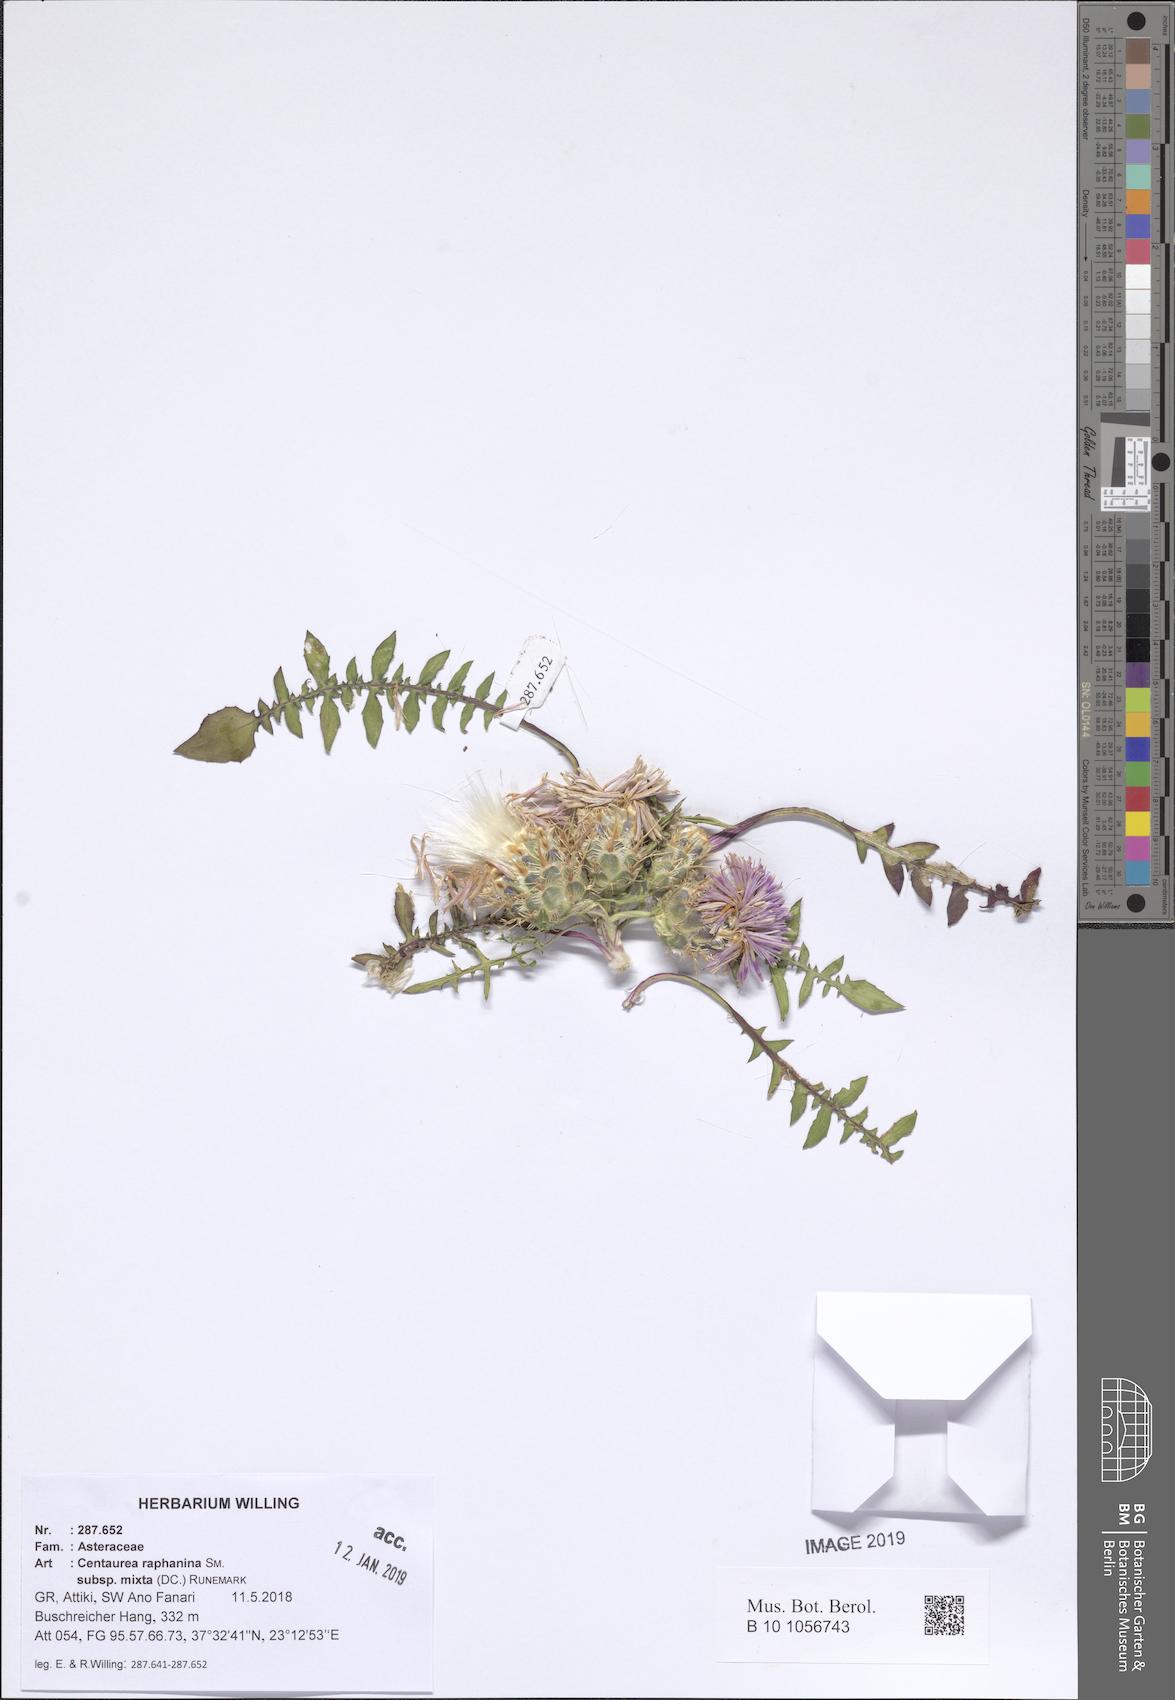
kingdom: Plantae
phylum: Tracheophyta
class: Magnoliopsida
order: Asterales
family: Asteraceae
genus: Centaurea
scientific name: Centaurea raphanina
